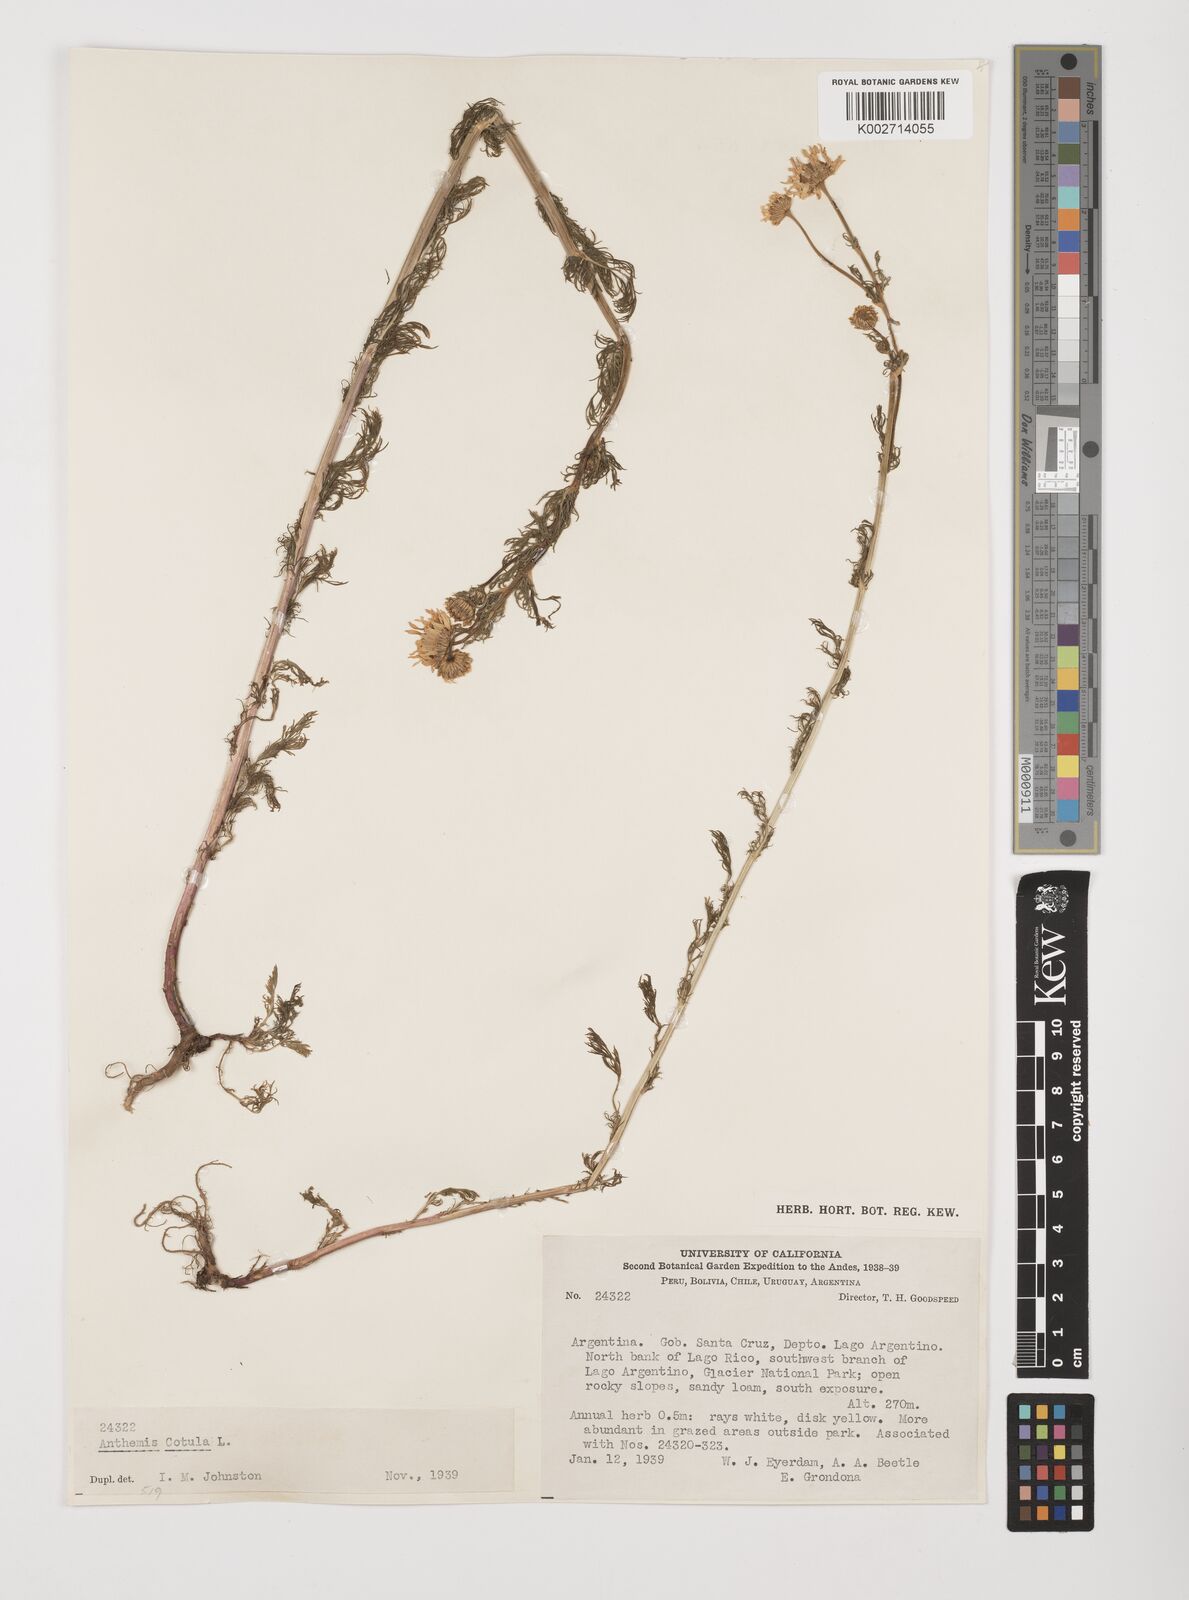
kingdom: Plantae
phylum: Tracheophyta
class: Magnoliopsida
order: Asterales
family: Asteraceae
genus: Anthemis
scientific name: Anthemis cotula
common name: Stinking chamomile
